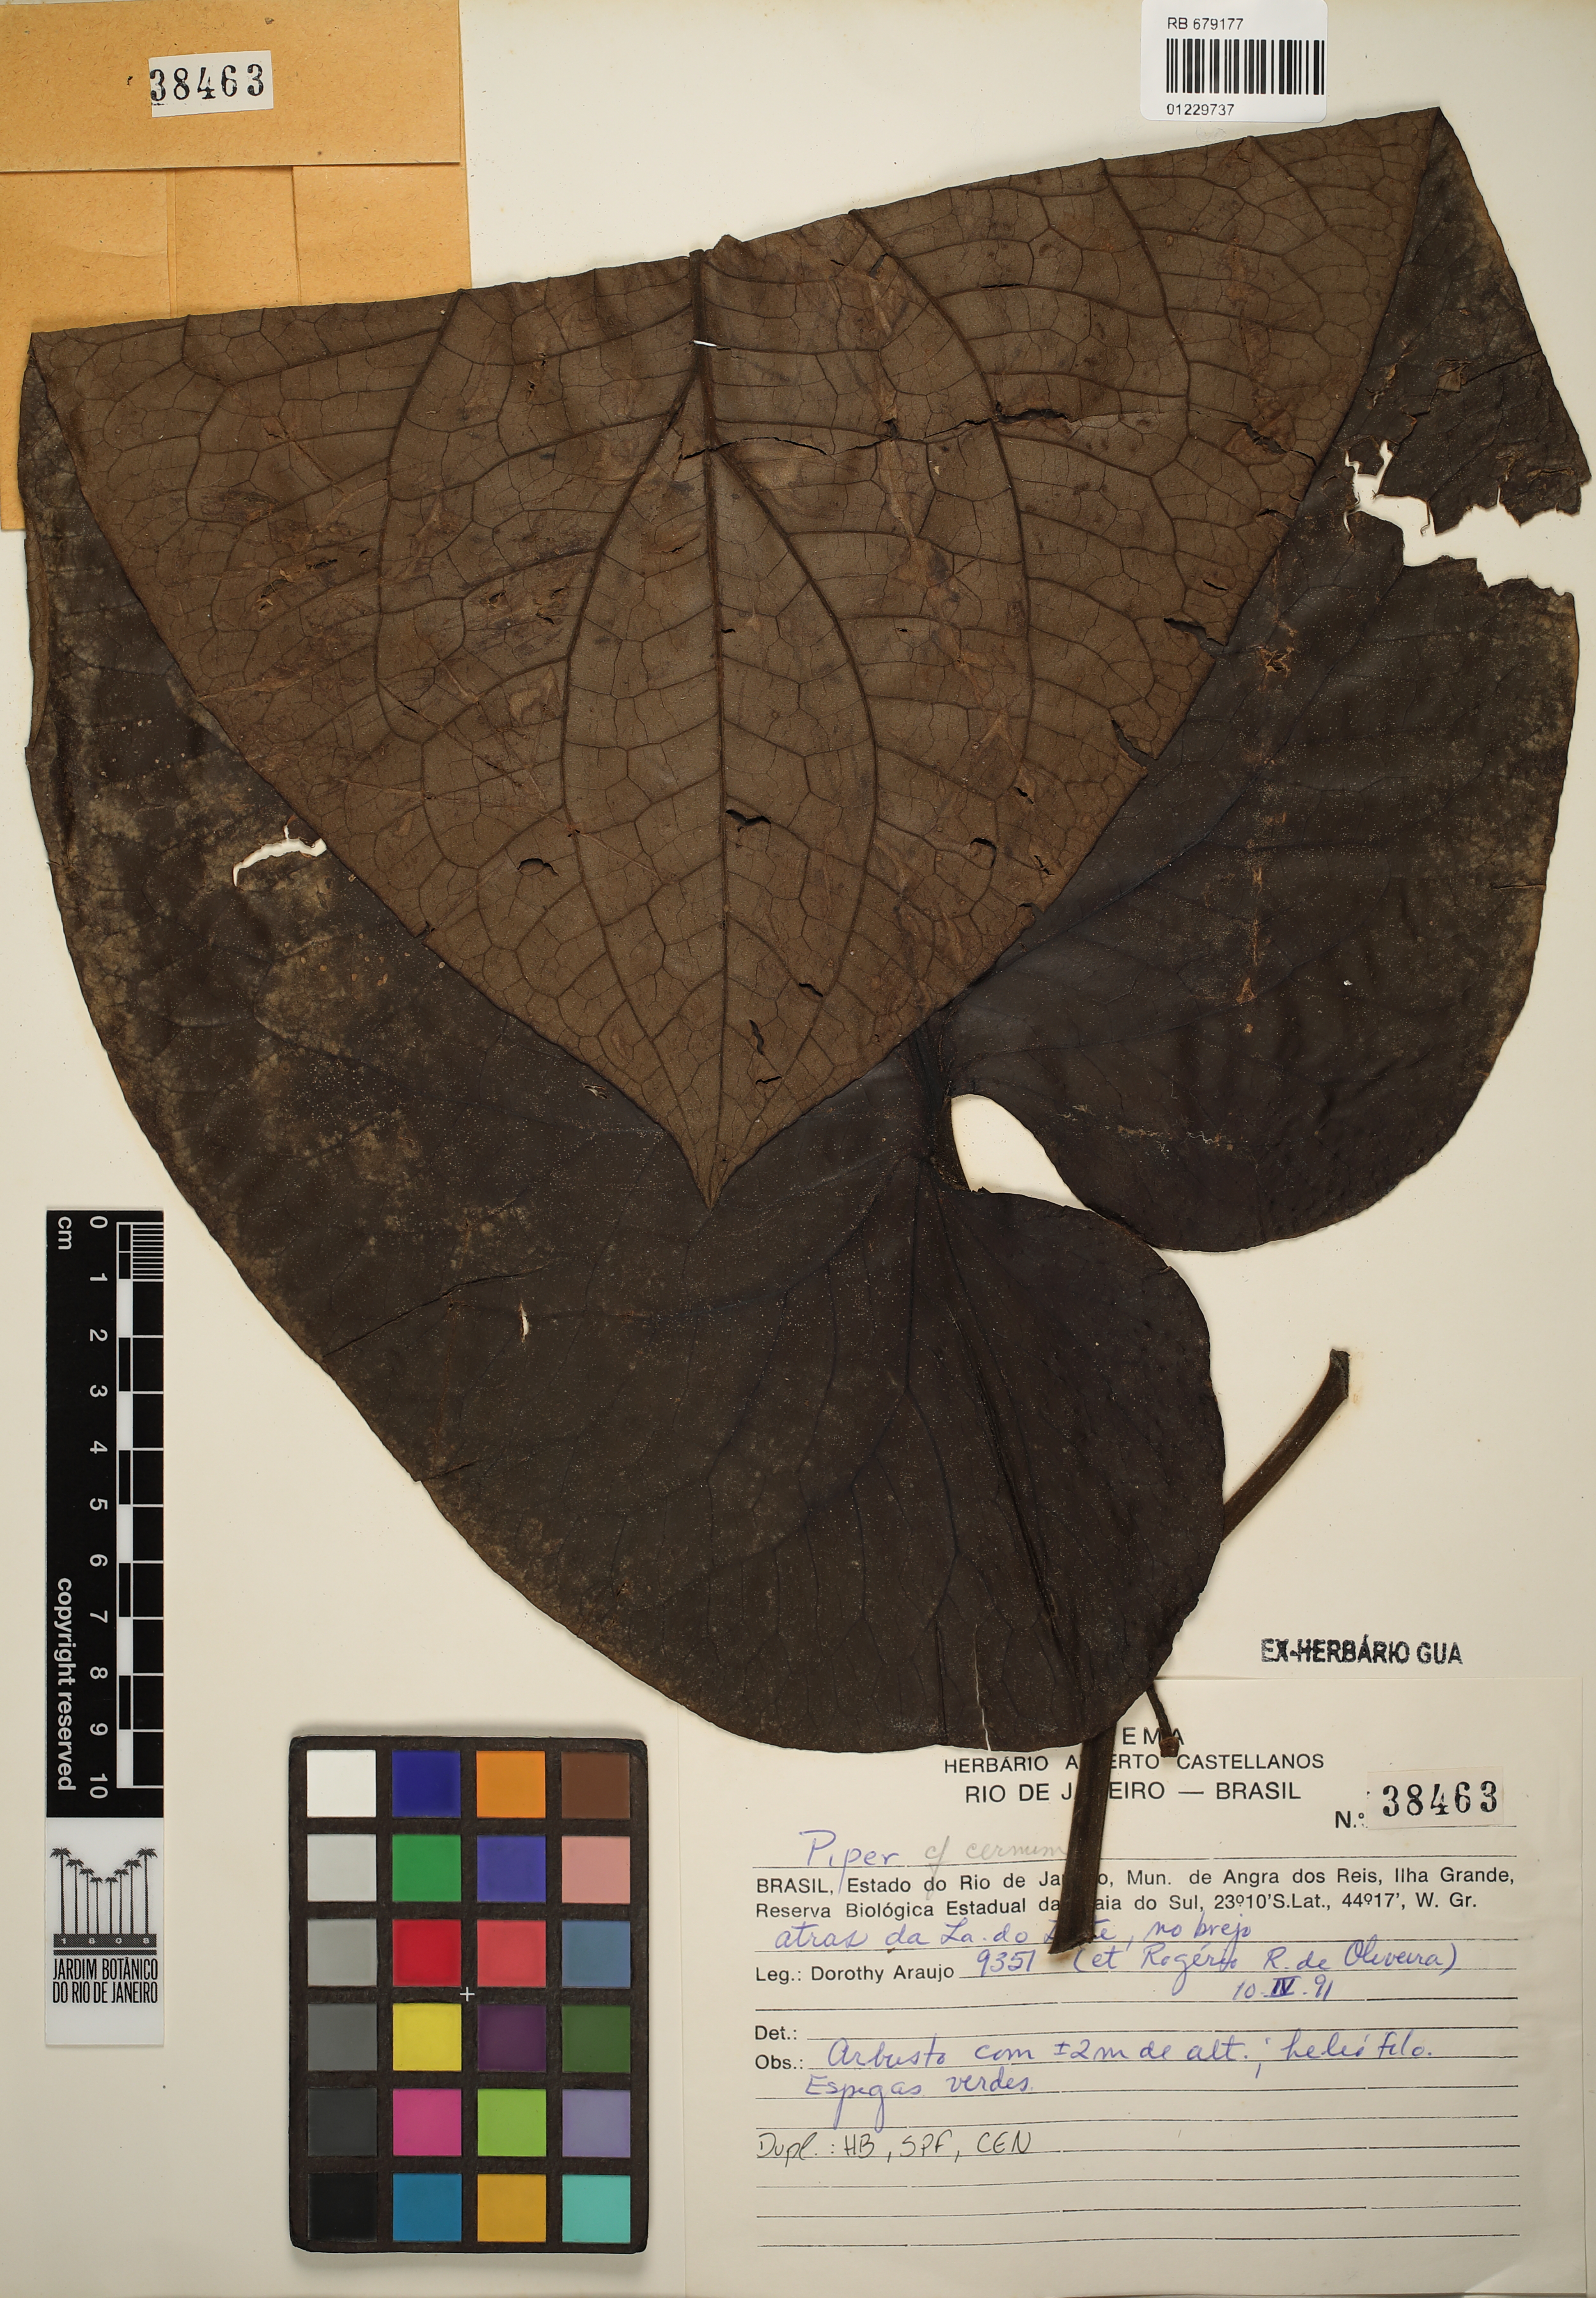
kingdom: Plantae
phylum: Tracheophyta
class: Magnoliopsida
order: Piperales
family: Piperaceae
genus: Piper
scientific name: Piper cernuum
